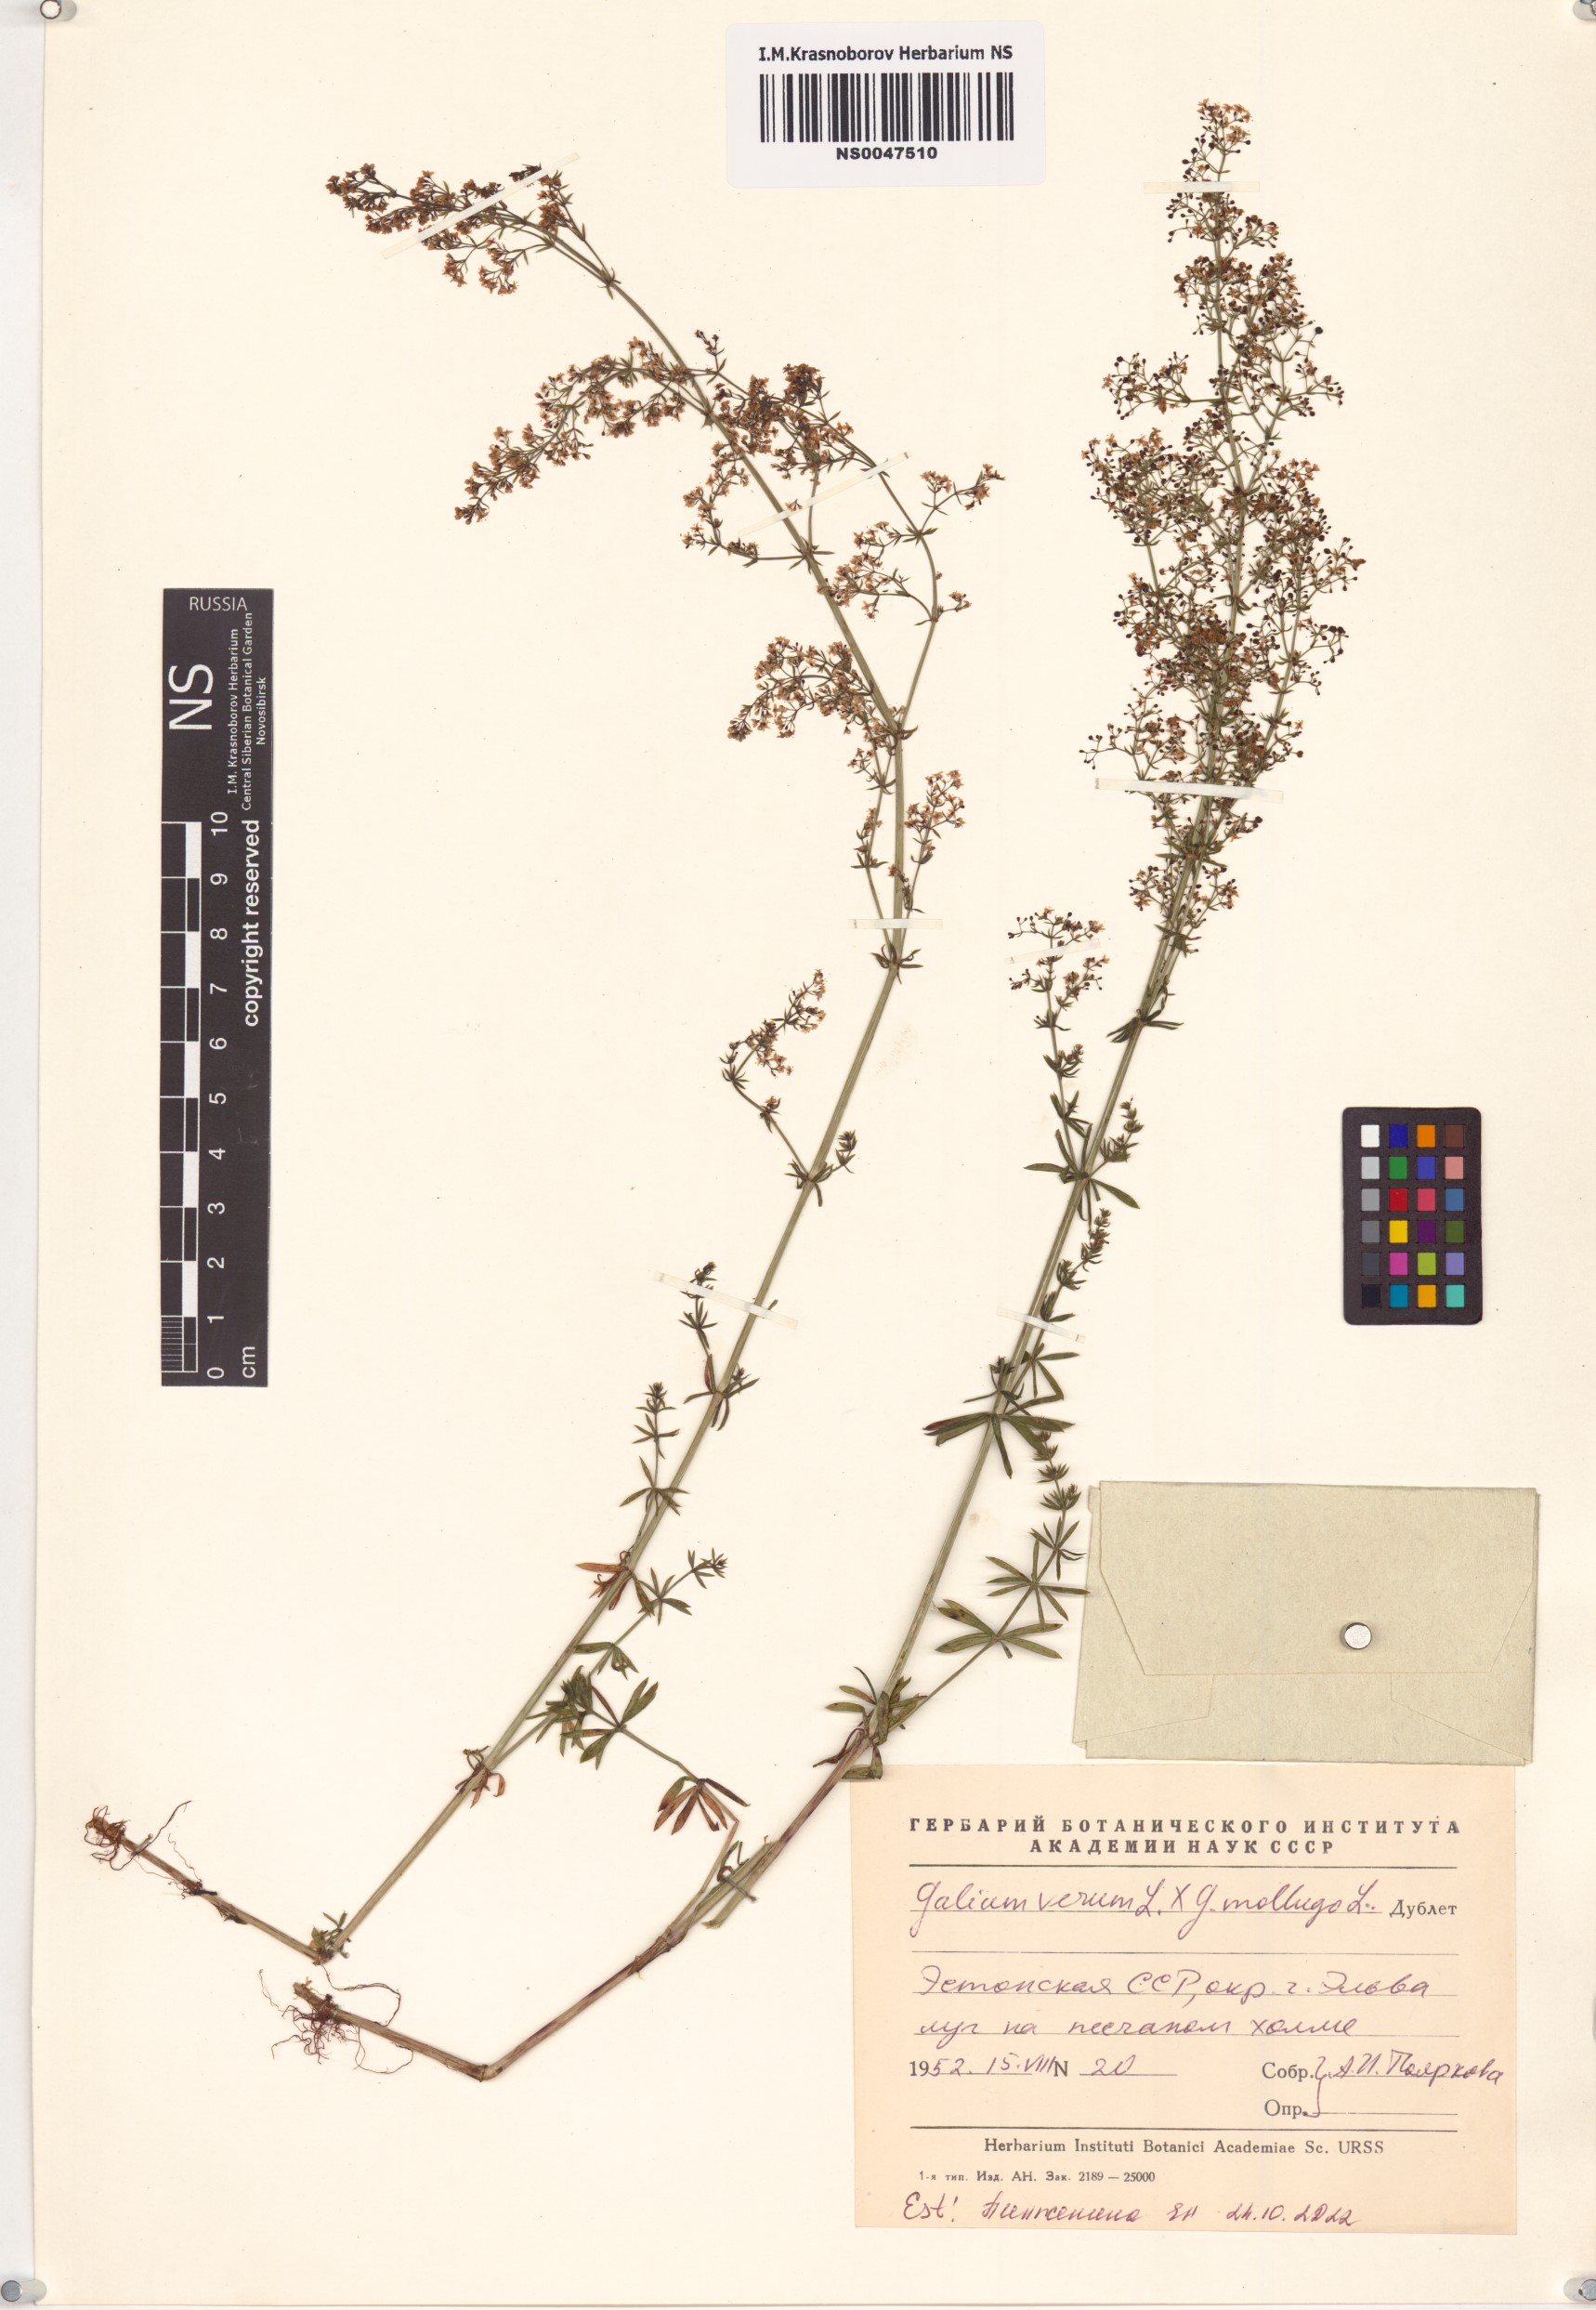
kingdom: Plantae
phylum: Tracheophyta
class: Magnoliopsida
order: Gentianales
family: Rubiaceae
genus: Galium
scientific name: Galium
